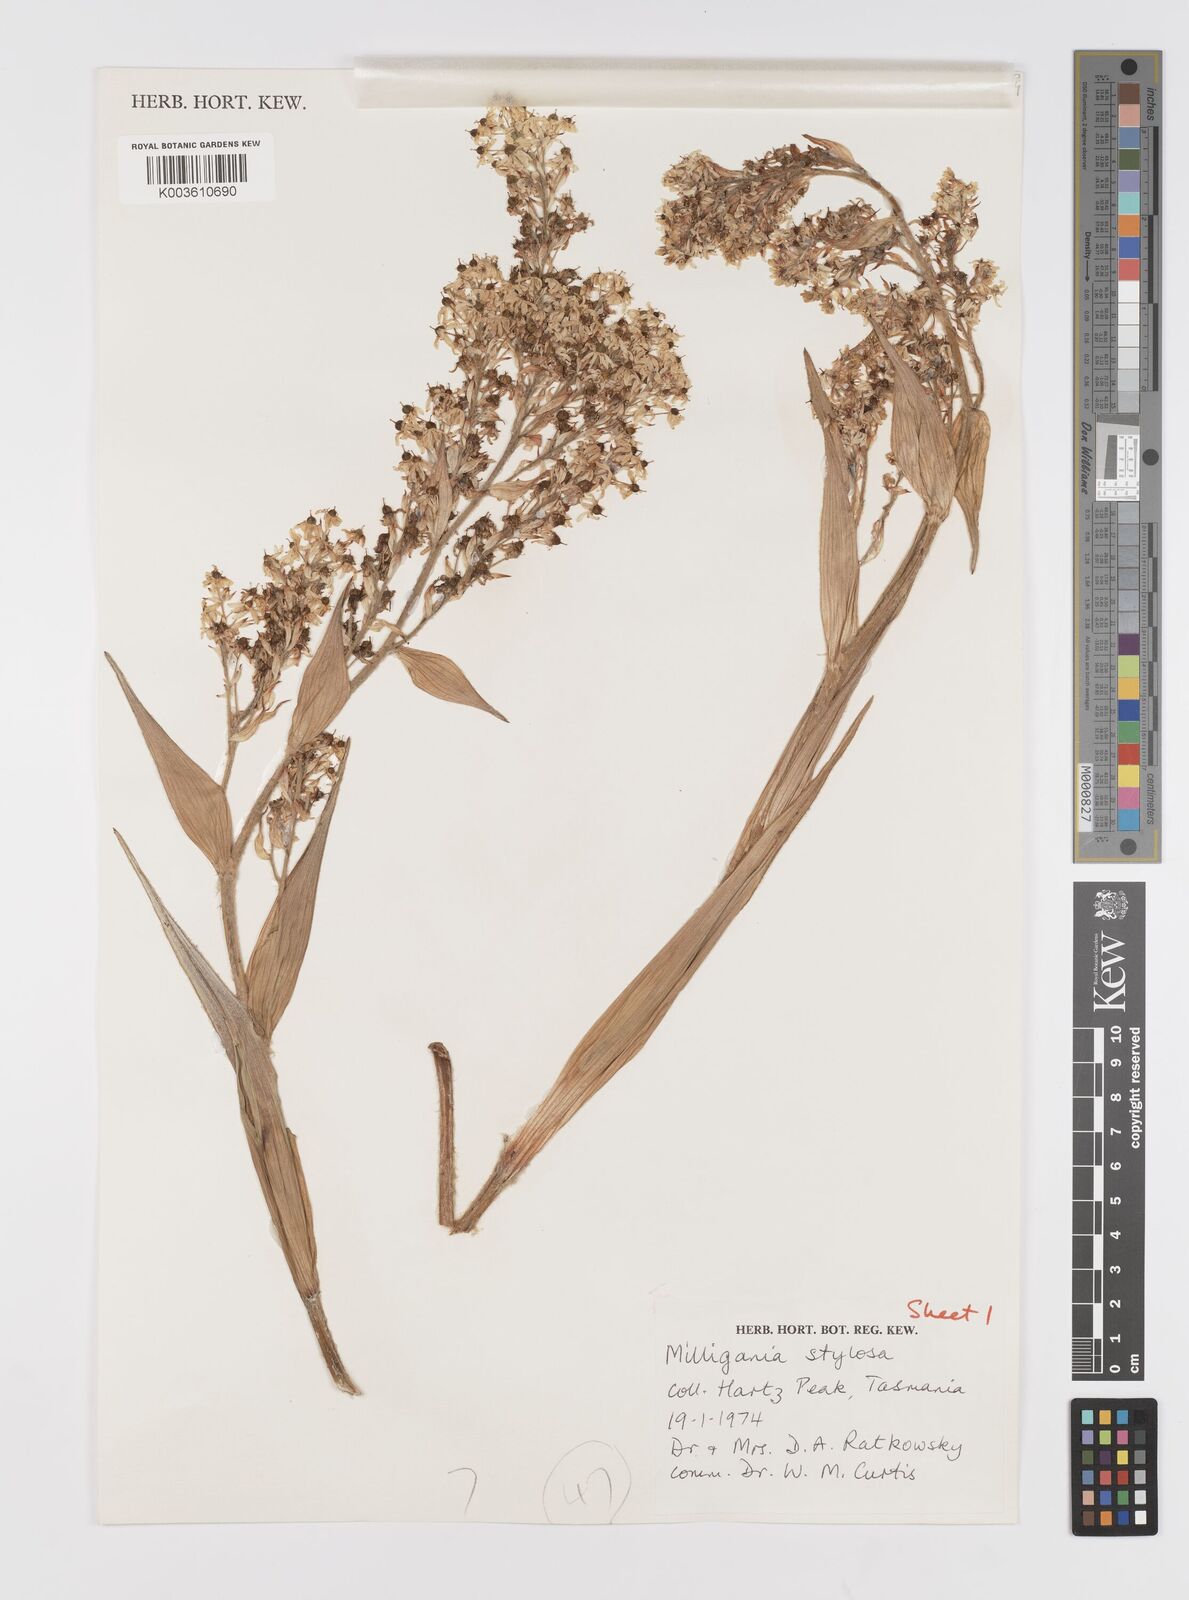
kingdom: Plantae
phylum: Tracheophyta
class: Liliopsida
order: Asparagales
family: Asteliaceae
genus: Milligania
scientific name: Milligania stylosa
